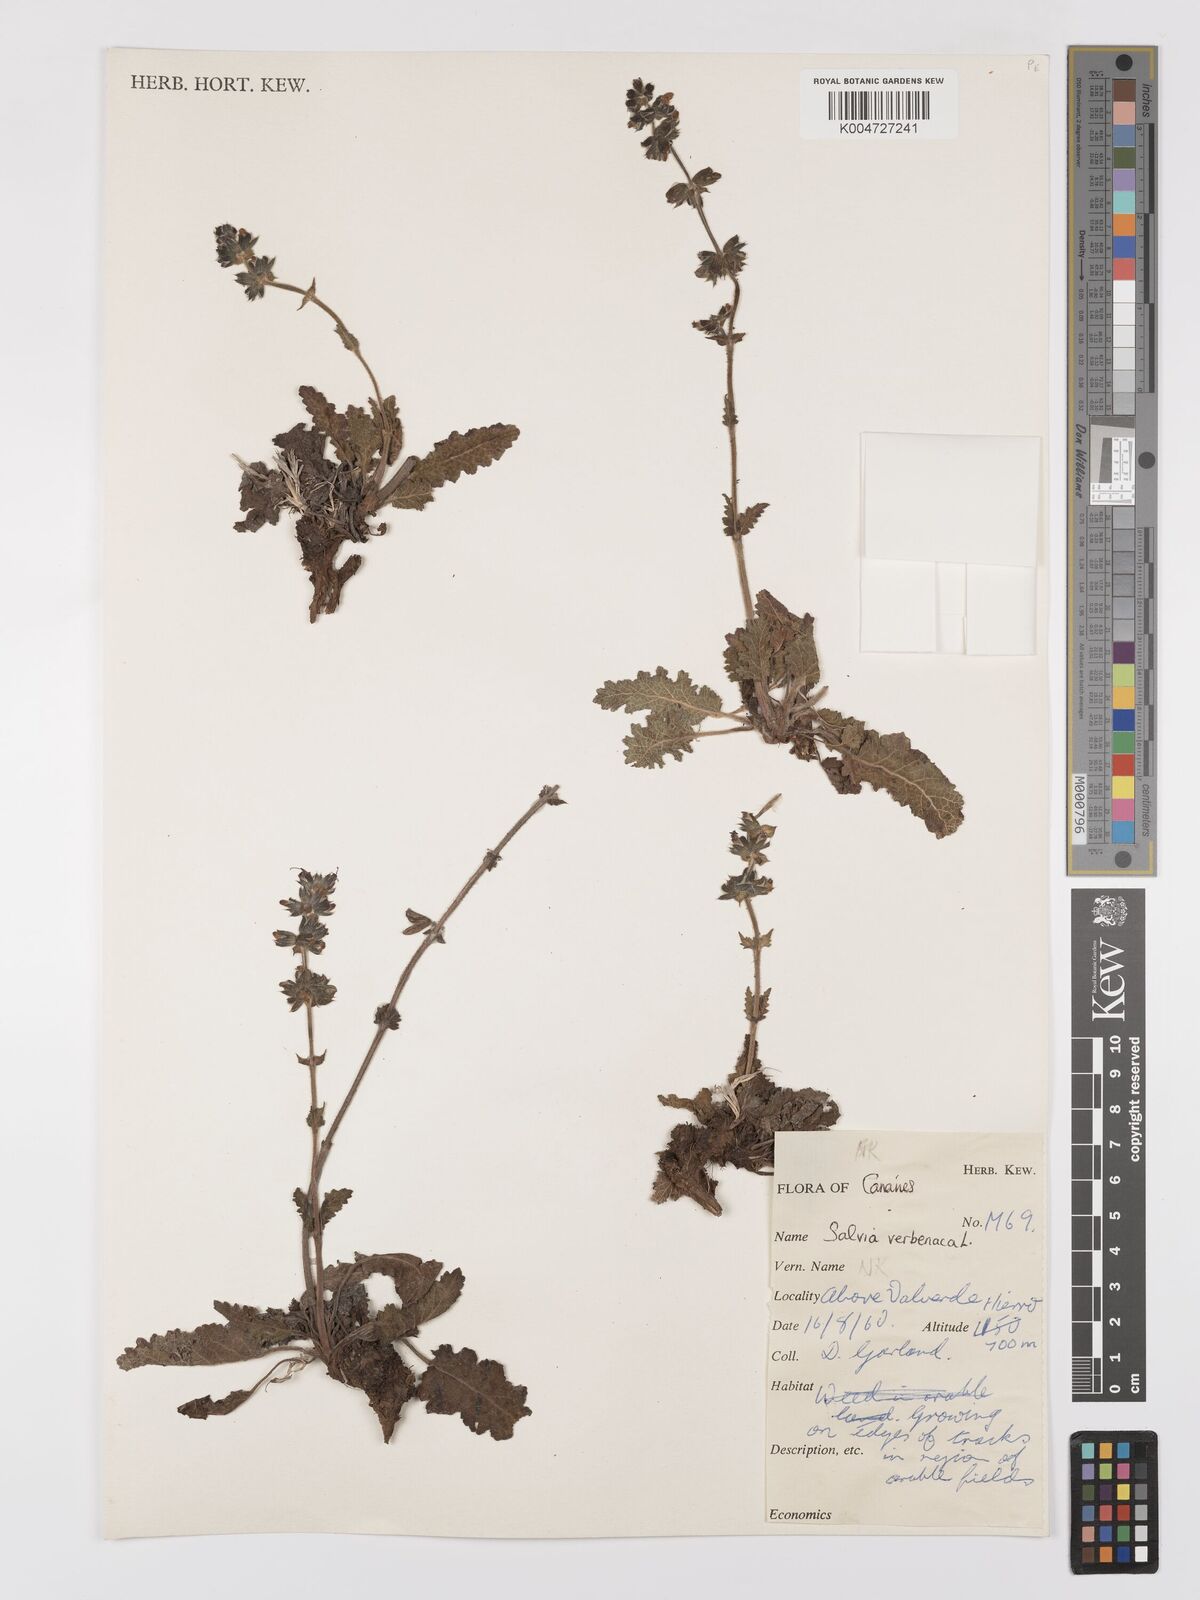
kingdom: Plantae
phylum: Tracheophyta
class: Magnoliopsida
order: Lamiales
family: Lamiaceae
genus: Salvia
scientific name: Salvia verbenaca
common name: Wild clary
